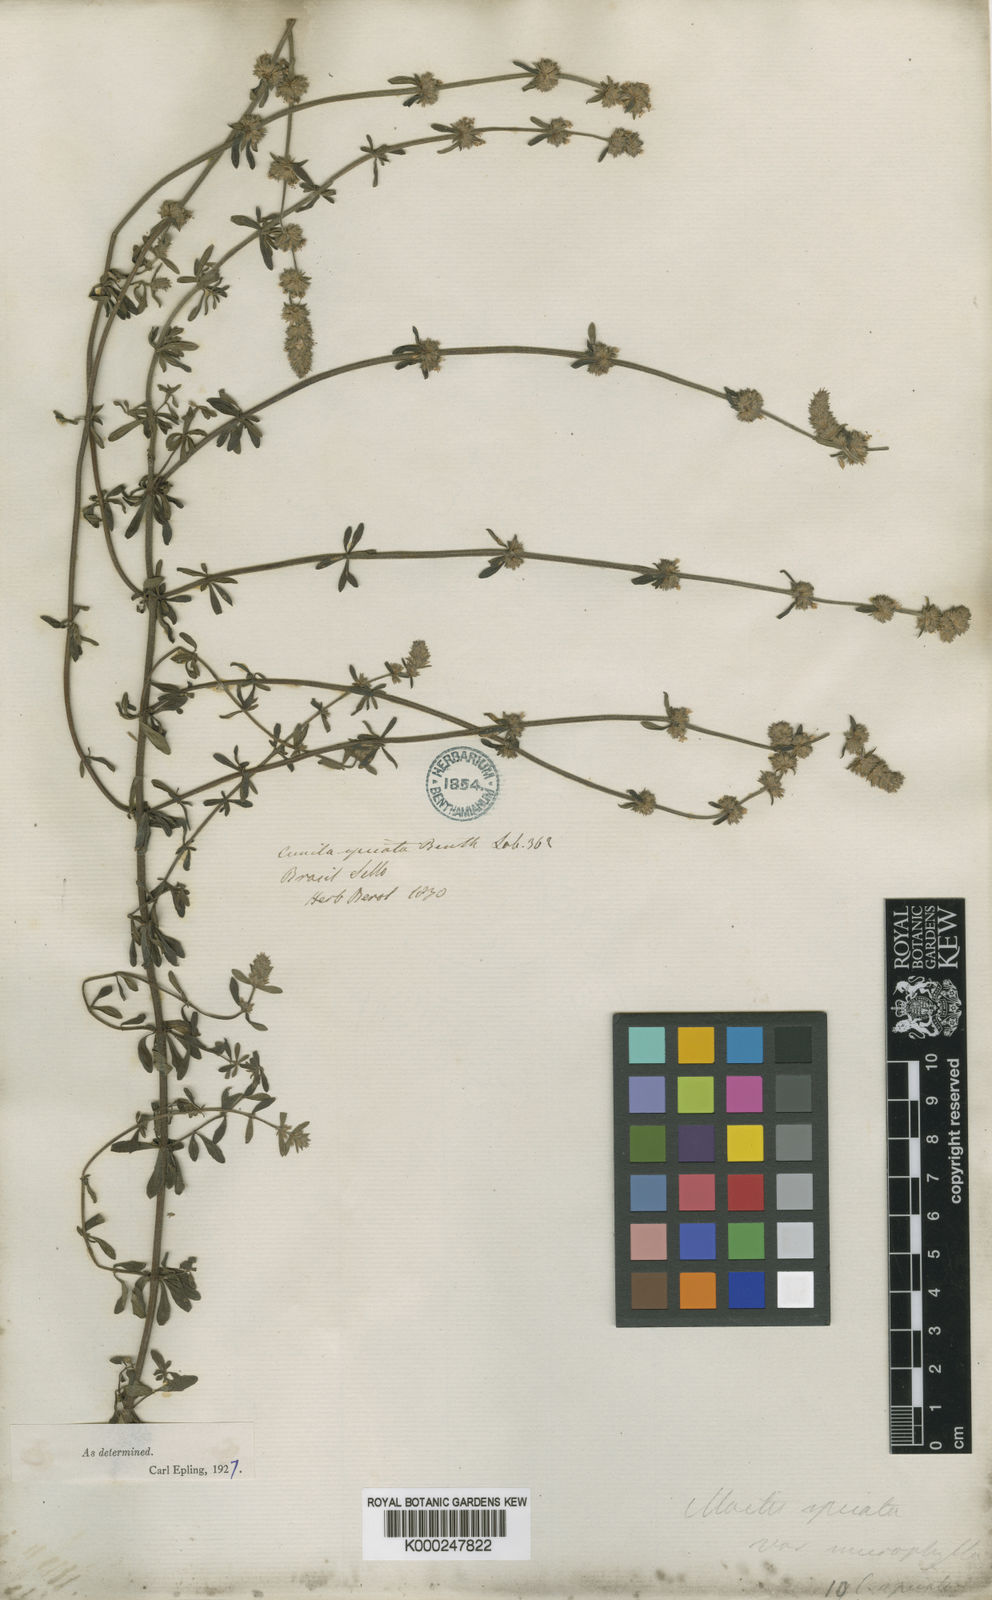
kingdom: Plantae
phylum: Tracheophyta
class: Magnoliopsida
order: Lamiales
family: Lamiaceae
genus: Cunila
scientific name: Cunila spicata
